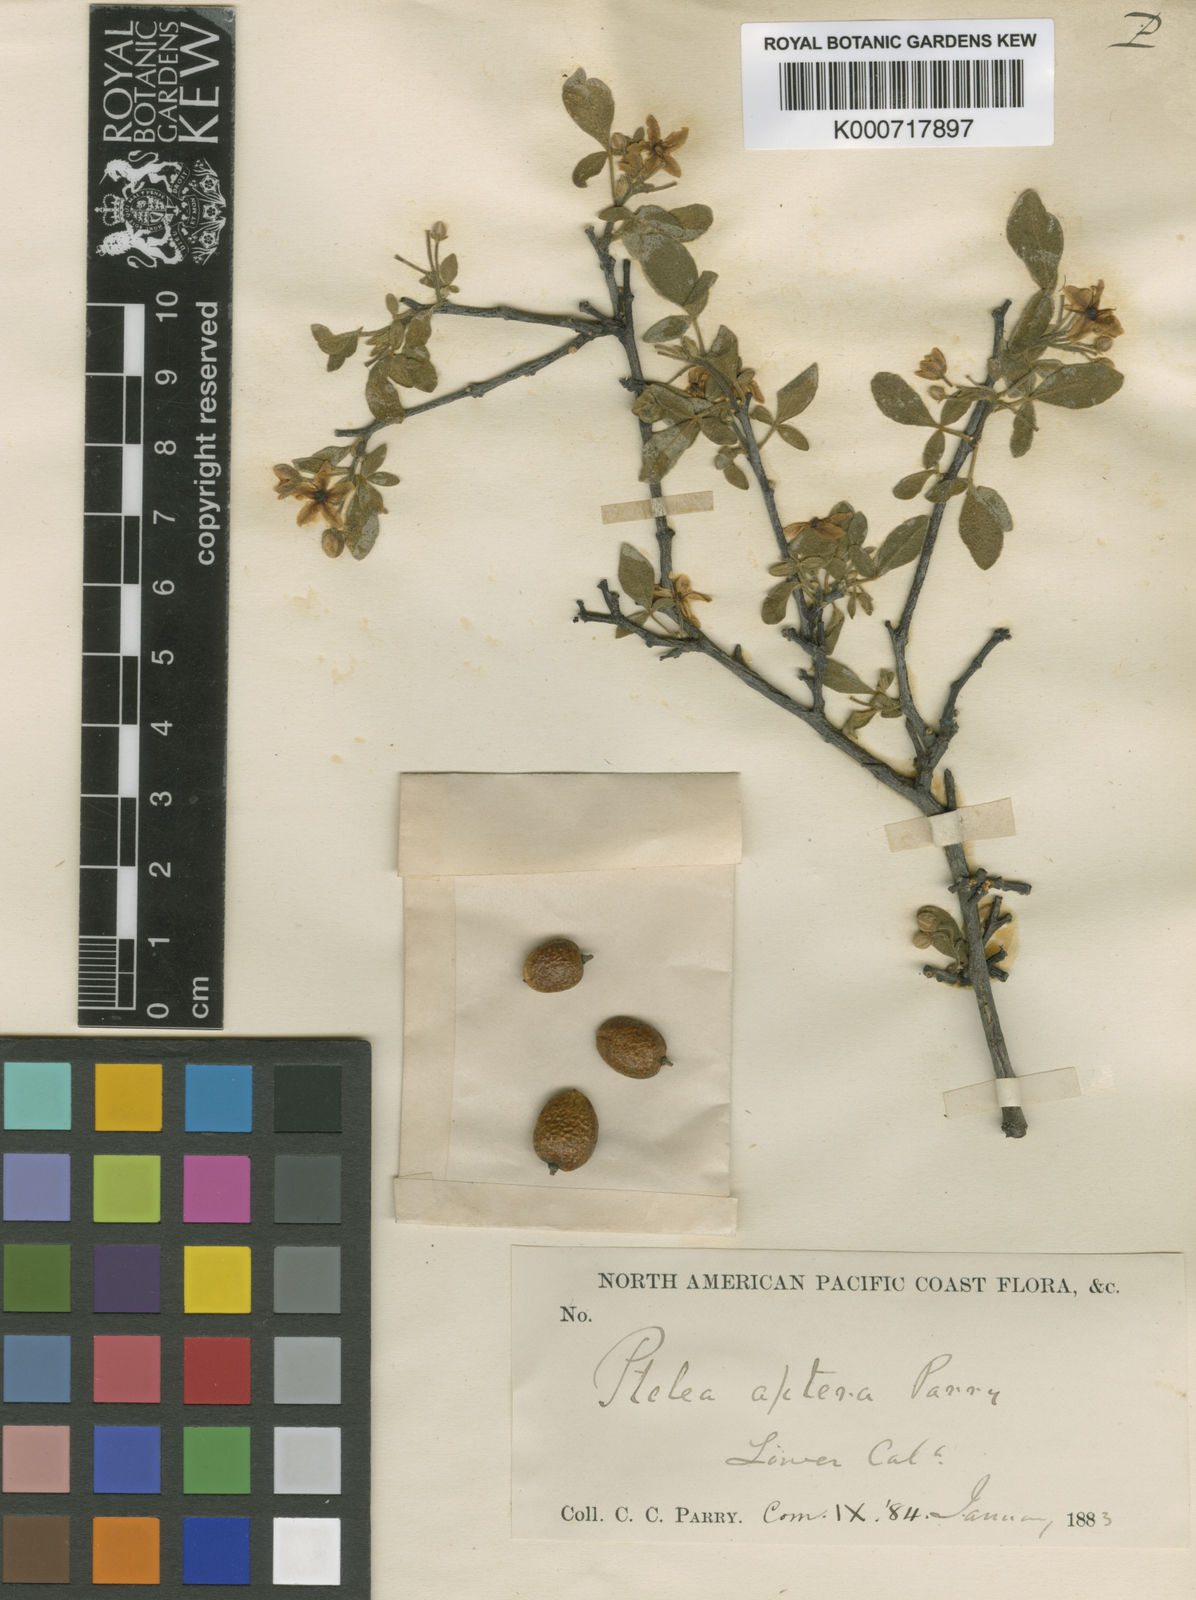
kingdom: Plantae
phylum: Tracheophyta
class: Magnoliopsida
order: Sapindales
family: Rutaceae
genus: Ptelea
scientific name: Ptelea aptera
